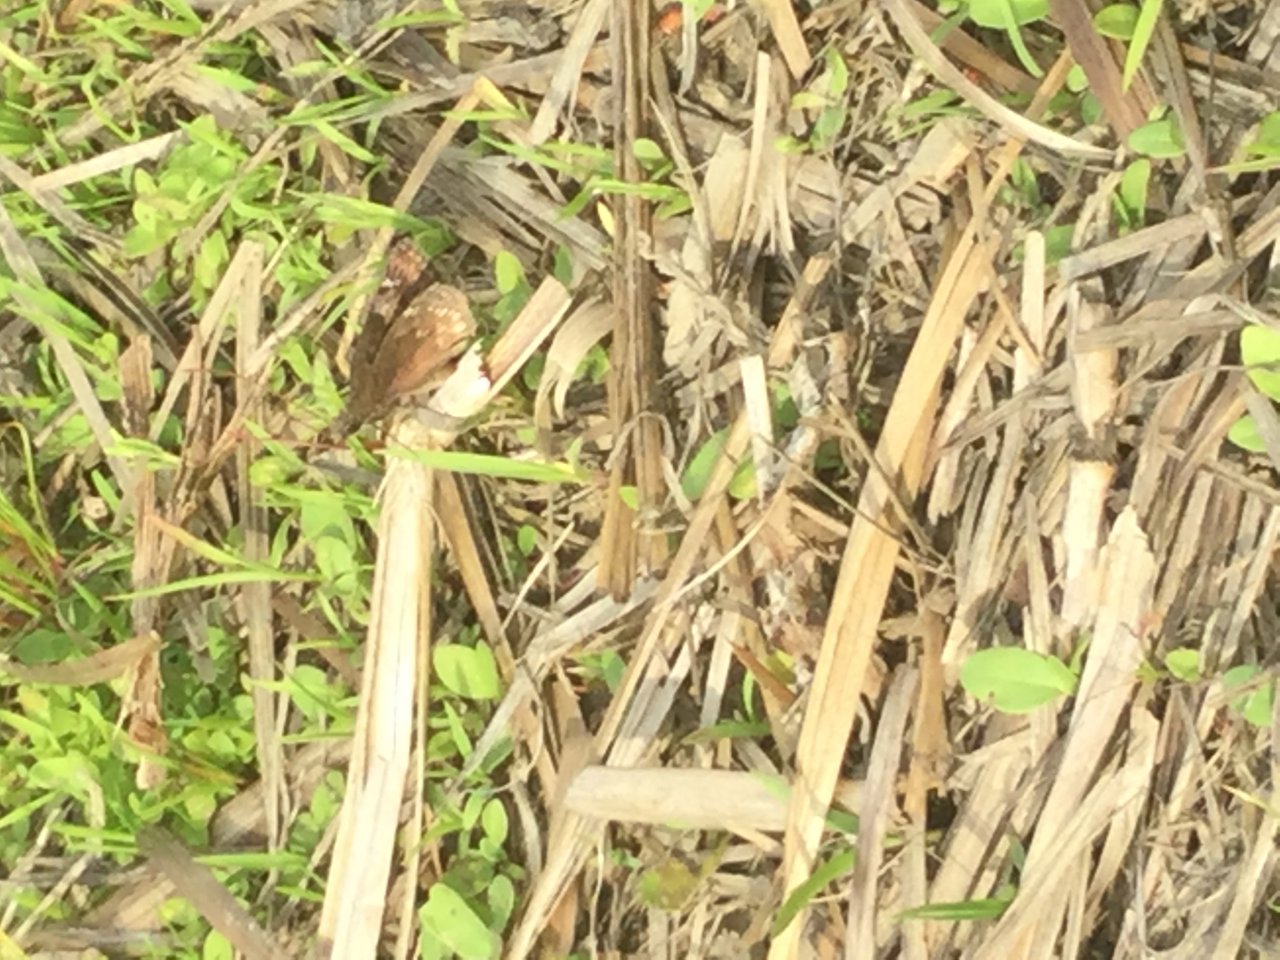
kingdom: Animalia
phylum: Arthropoda
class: Insecta
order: Lepidoptera
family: Hesperiidae
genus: Gesta
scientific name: Gesta
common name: Wild Indigo Duskywing
